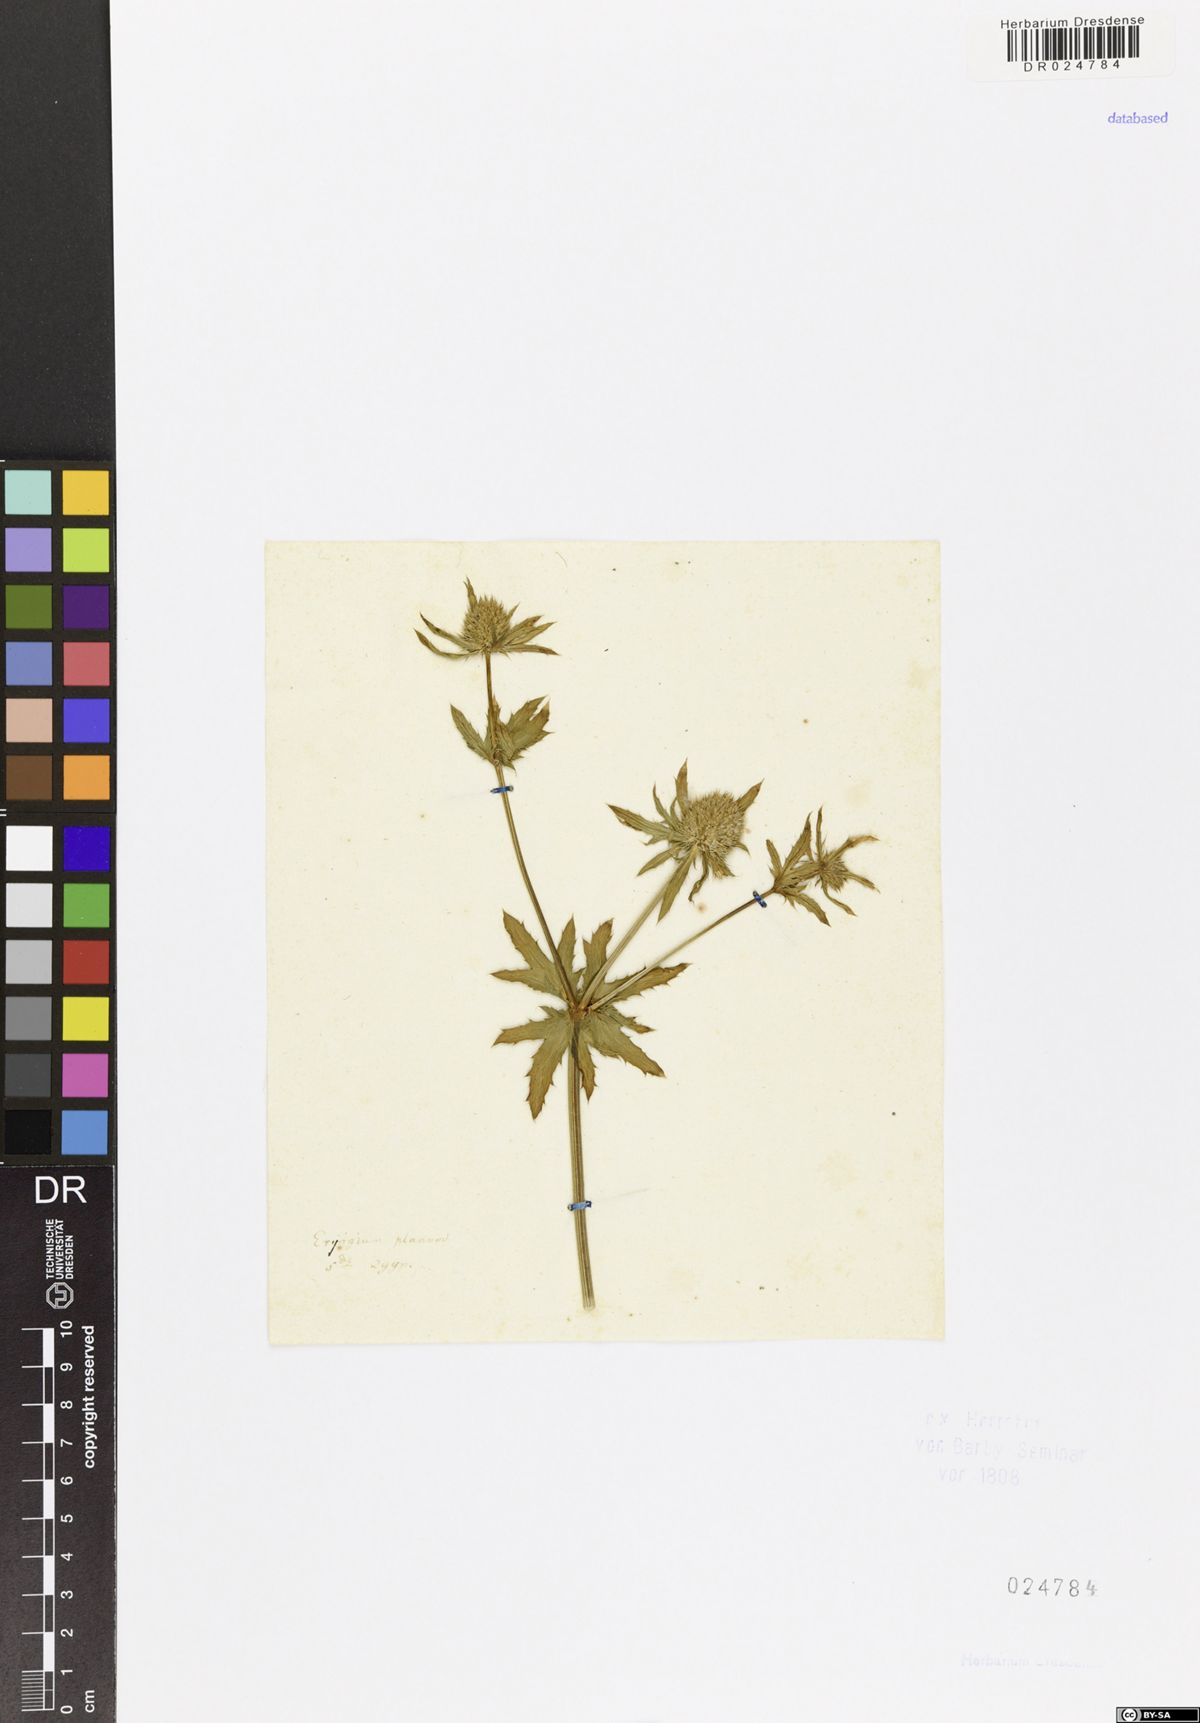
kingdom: Plantae
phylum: Tracheophyta
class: Magnoliopsida
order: Apiales
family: Apiaceae
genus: Eryngium
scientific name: Eryngium planum
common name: Blue eryngo
